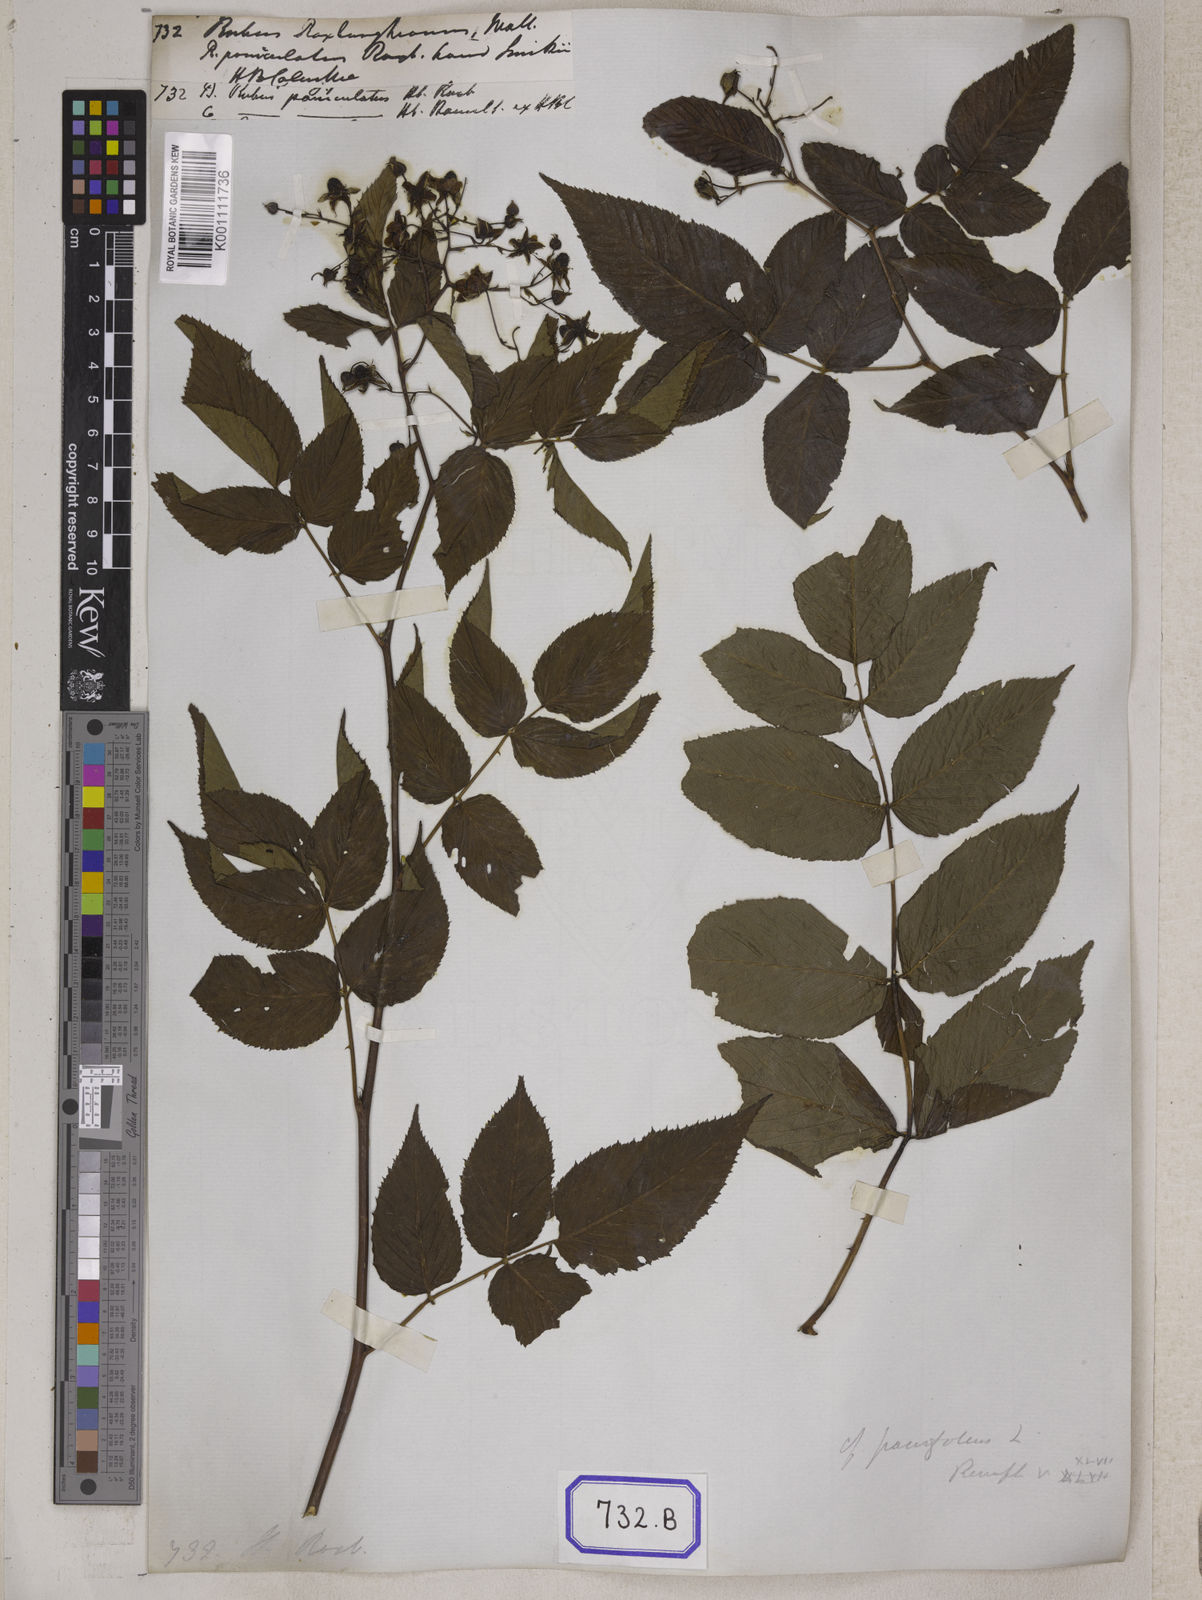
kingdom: Plantae
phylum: Tracheophyta
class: Magnoliopsida
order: Rosales
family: Rosaceae
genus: Rubus
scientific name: Rubus parvifolius
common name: Threeleaf blackberry
